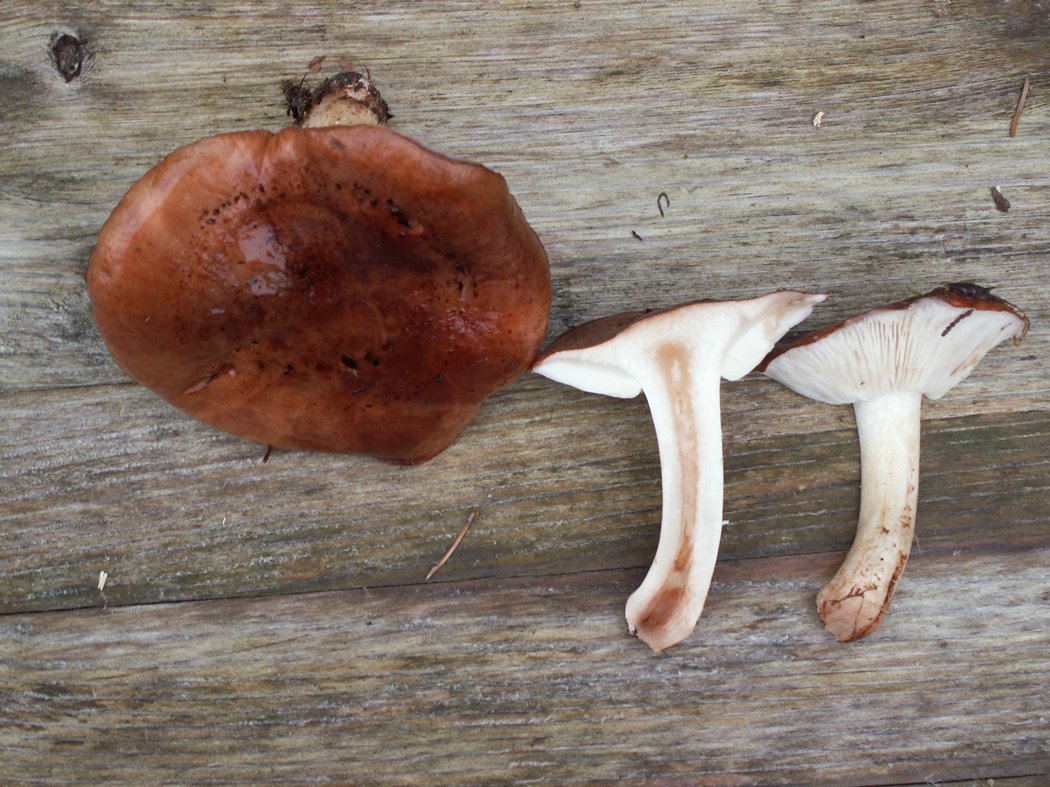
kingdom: Fungi
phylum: Basidiomycota
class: Agaricomycetes
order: Agaricales
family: Tricholomataceae
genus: Tricholoma
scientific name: Tricholoma pessundatum
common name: dråbeplettet ridderhat
